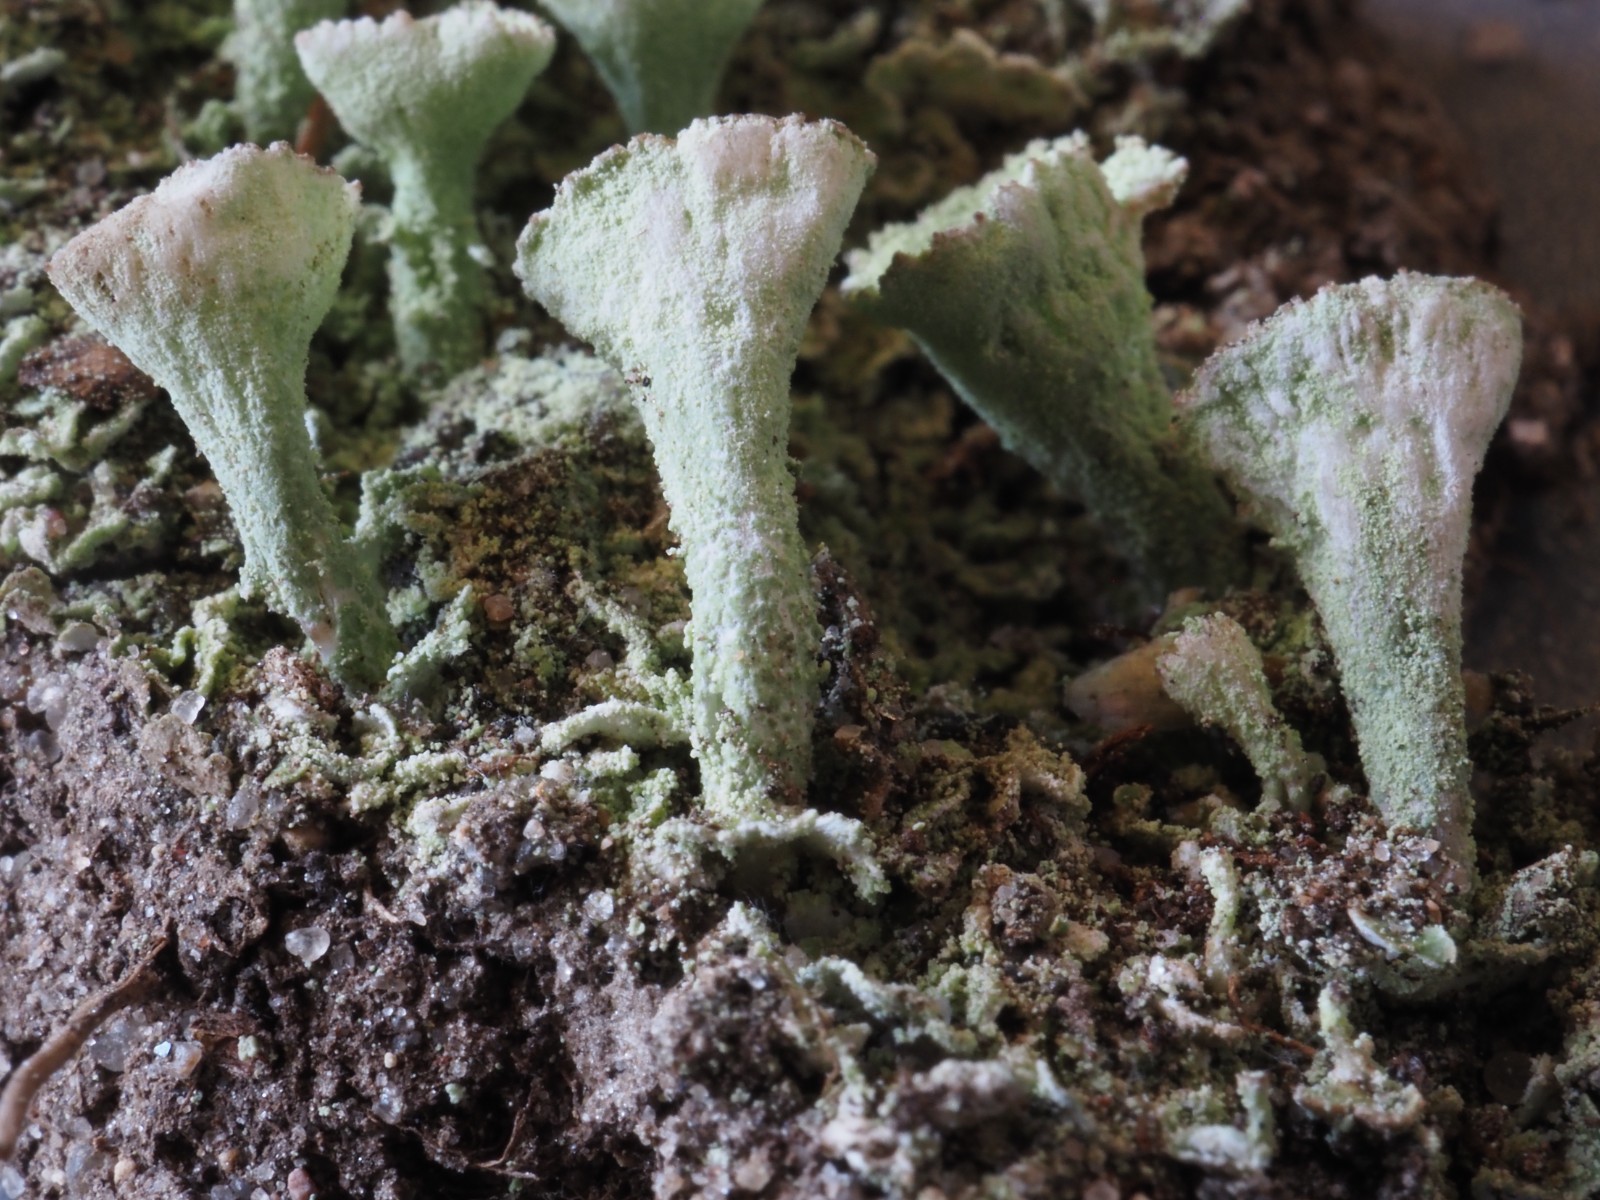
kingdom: Fungi
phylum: Ascomycota
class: Lecanoromycetes
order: Lecanorales
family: Cladoniaceae
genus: Cladonia
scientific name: Cladonia humilis
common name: lav bægerlav
